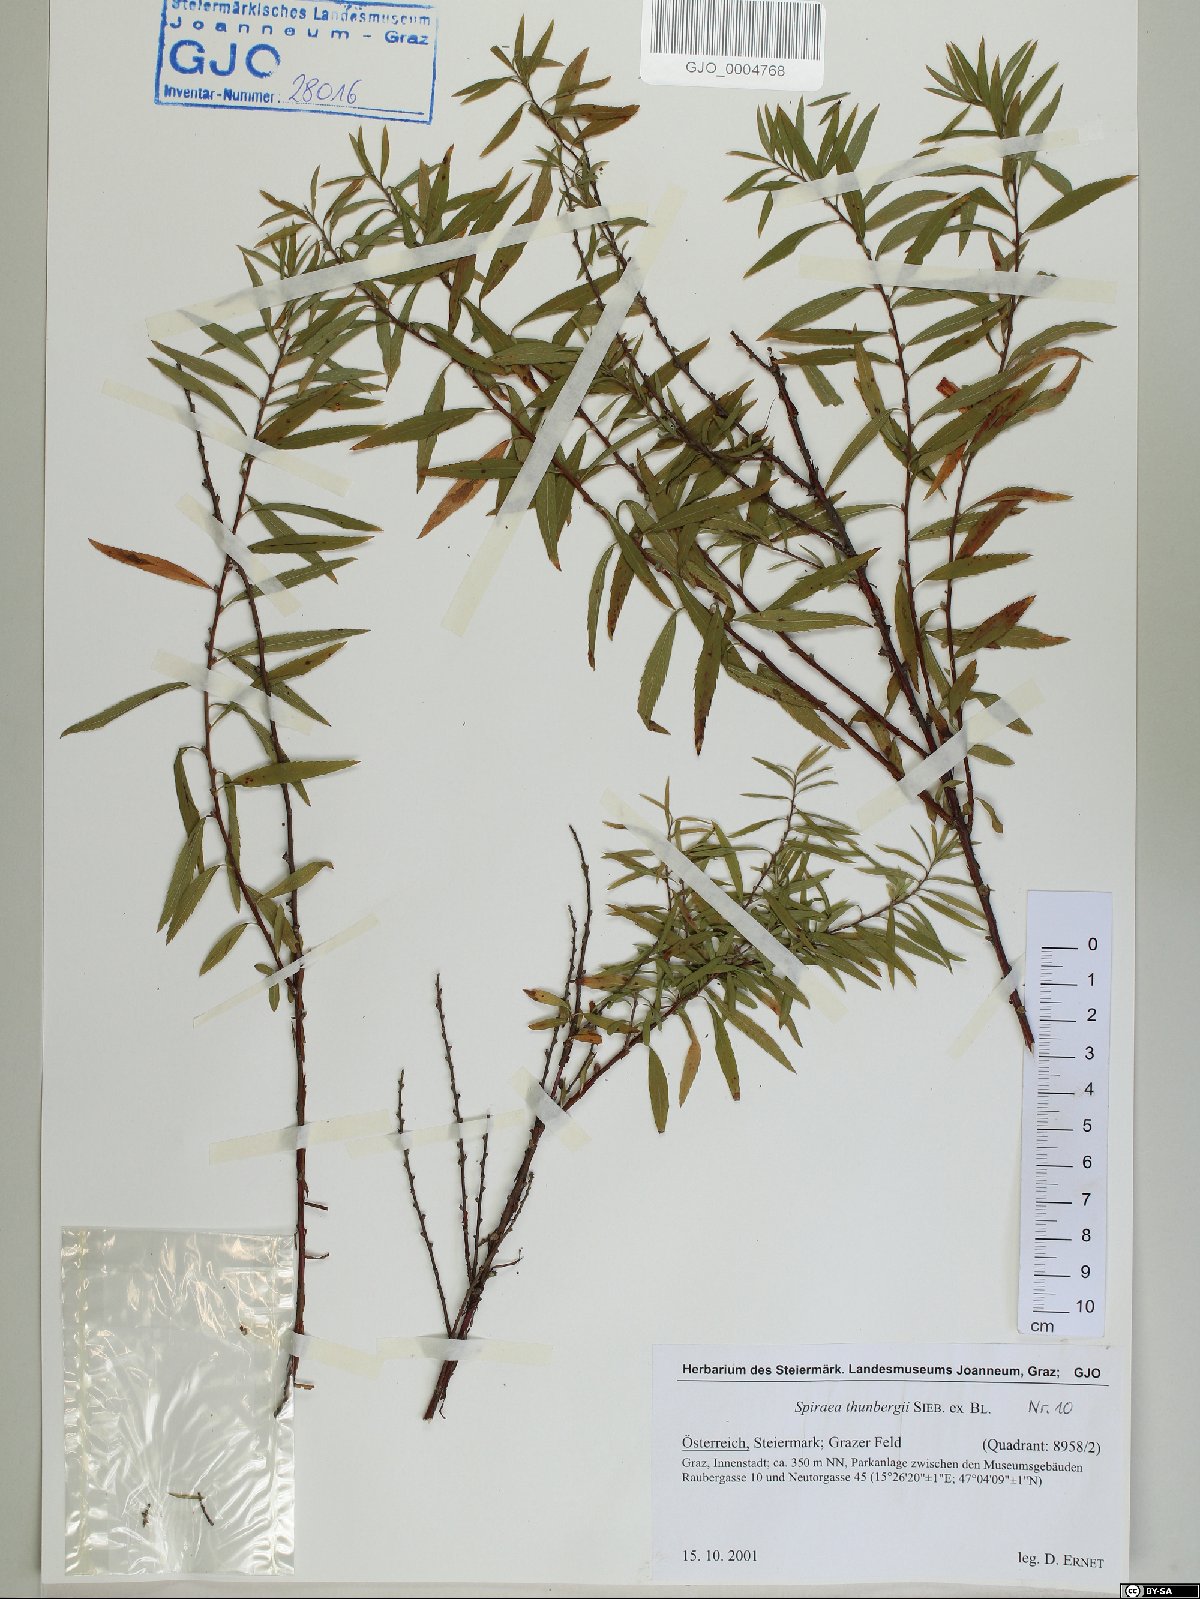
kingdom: Plantae
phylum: Tracheophyta
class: Magnoliopsida
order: Rosales
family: Rosaceae
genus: Spiraea
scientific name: Spiraea thunbergii
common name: Thunberg's meadowsweet
